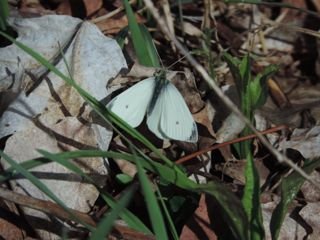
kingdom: Animalia
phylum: Arthropoda
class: Insecta
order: Lepidoptera
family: Pieridae
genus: Pieris
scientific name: Pieris rapae
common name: Cabbage White
